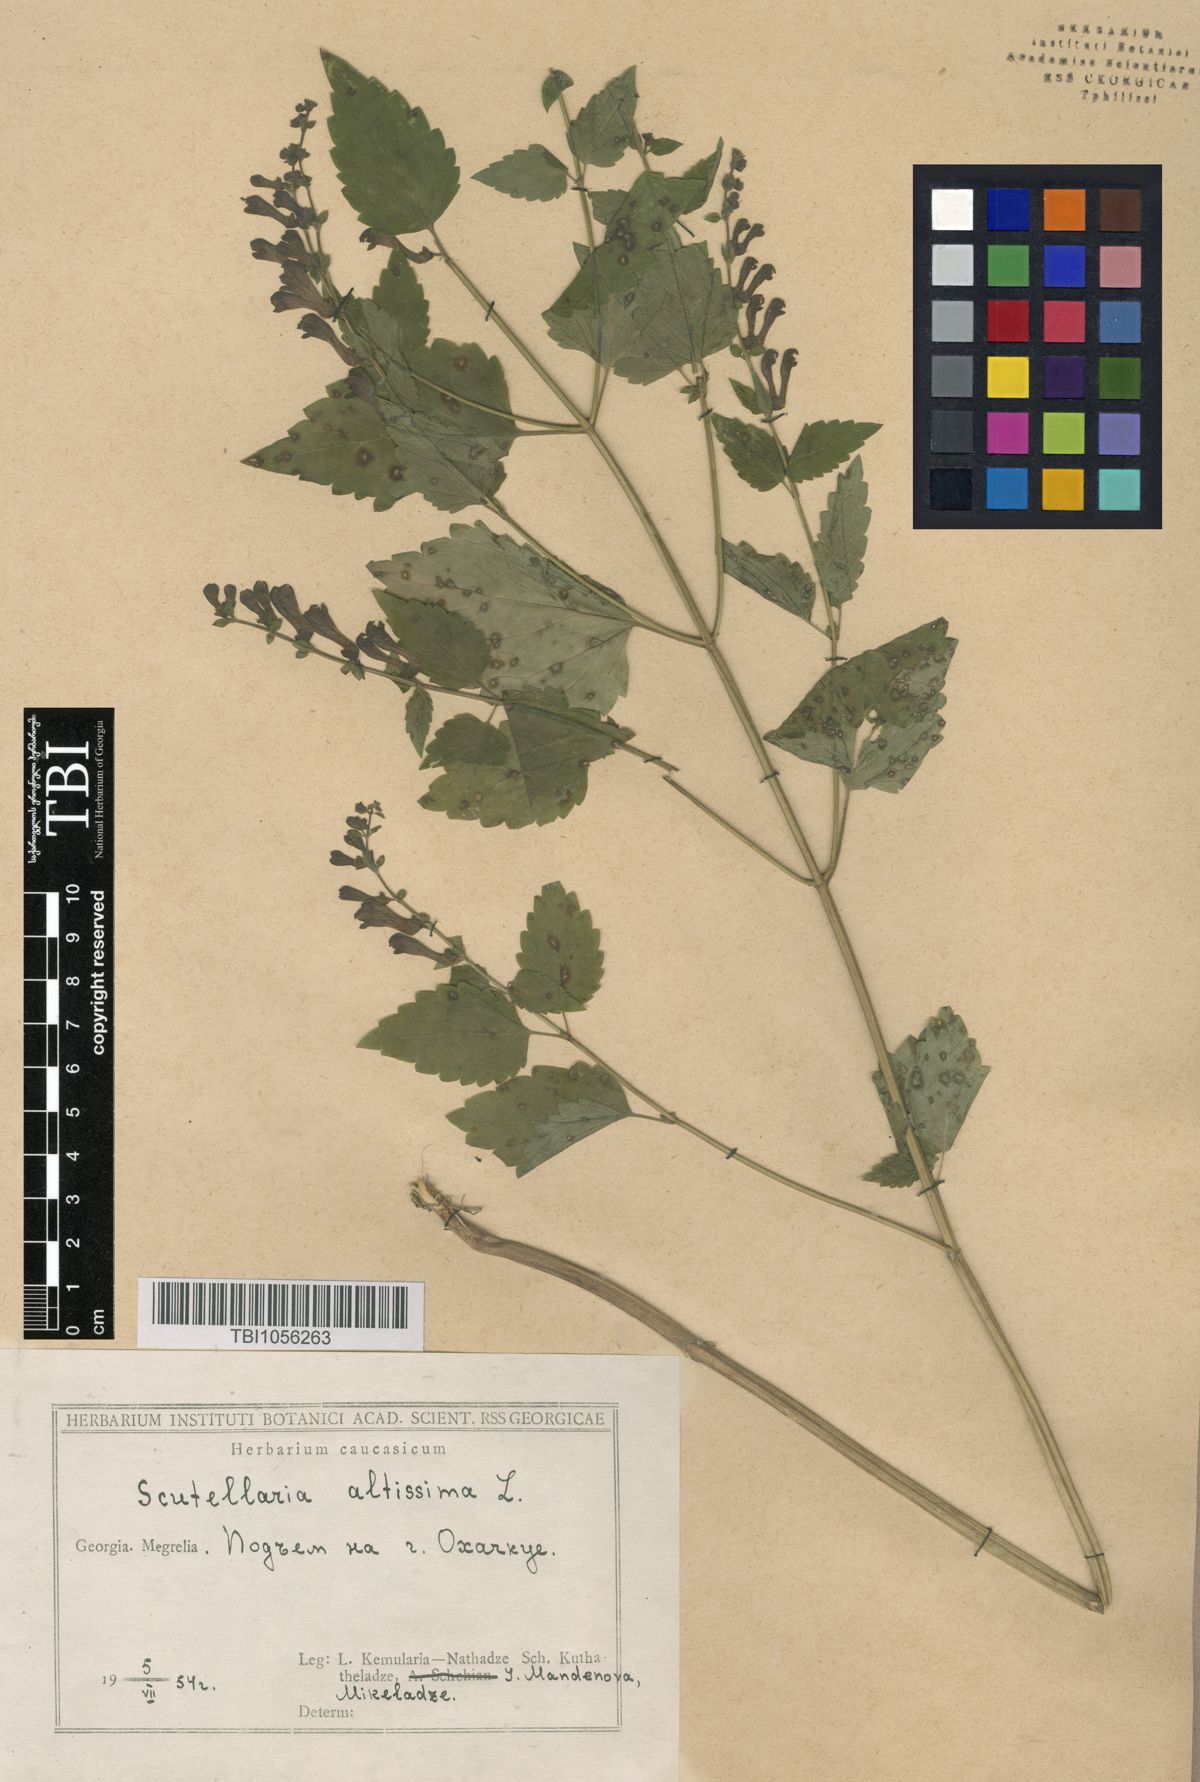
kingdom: Plantae
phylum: Tracheophyta
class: Magnoliopsida
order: Lamiales
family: Lamiaceae
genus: Scutellaria
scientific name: Scutellaria altissima
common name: Somerset skullcap
